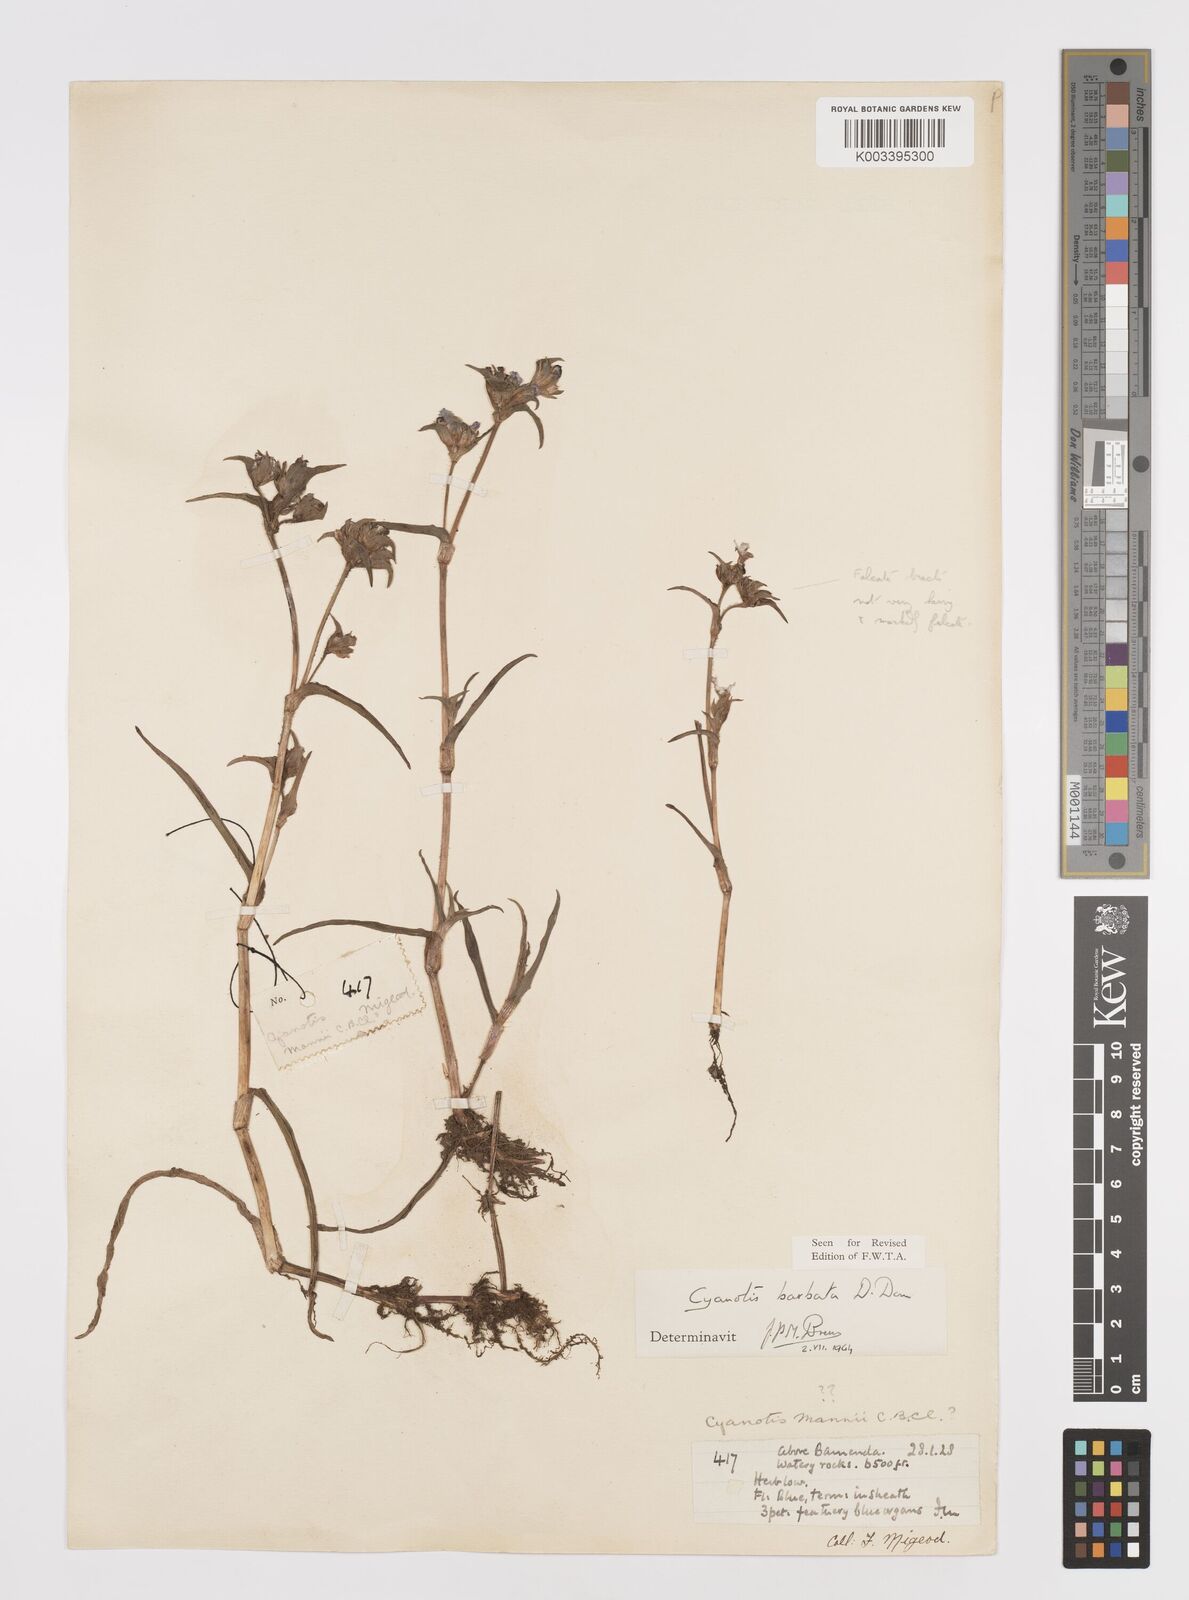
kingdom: Plantae
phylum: Tracheophyta
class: Liliopsida
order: Commelinales
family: Commelinaceae
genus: Cyanotis
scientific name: Cyanotis vaga
